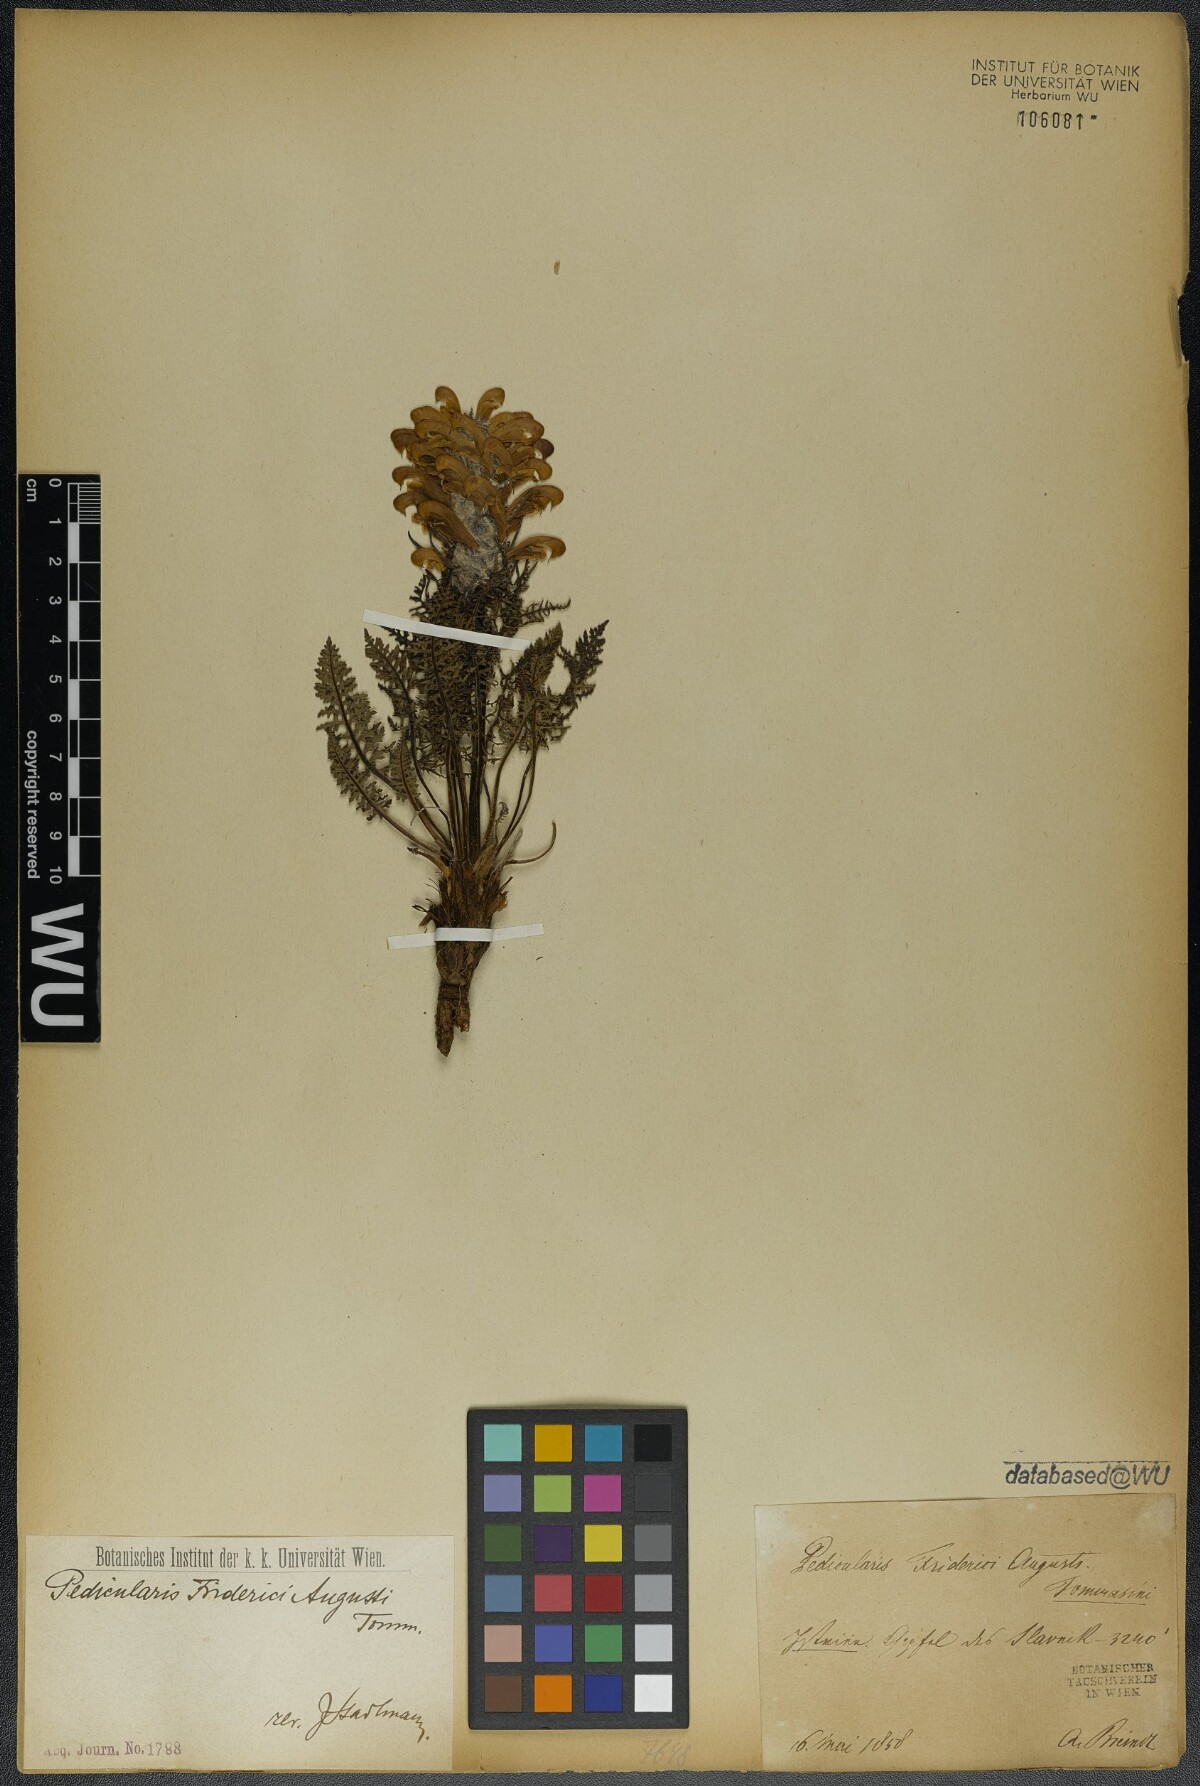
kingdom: Plantae
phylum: Tracheophyta
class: Magnoliopsida
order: Lamiales
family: Orobanchaceae
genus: Pedicularis
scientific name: Pedicularis friderici-augusti
